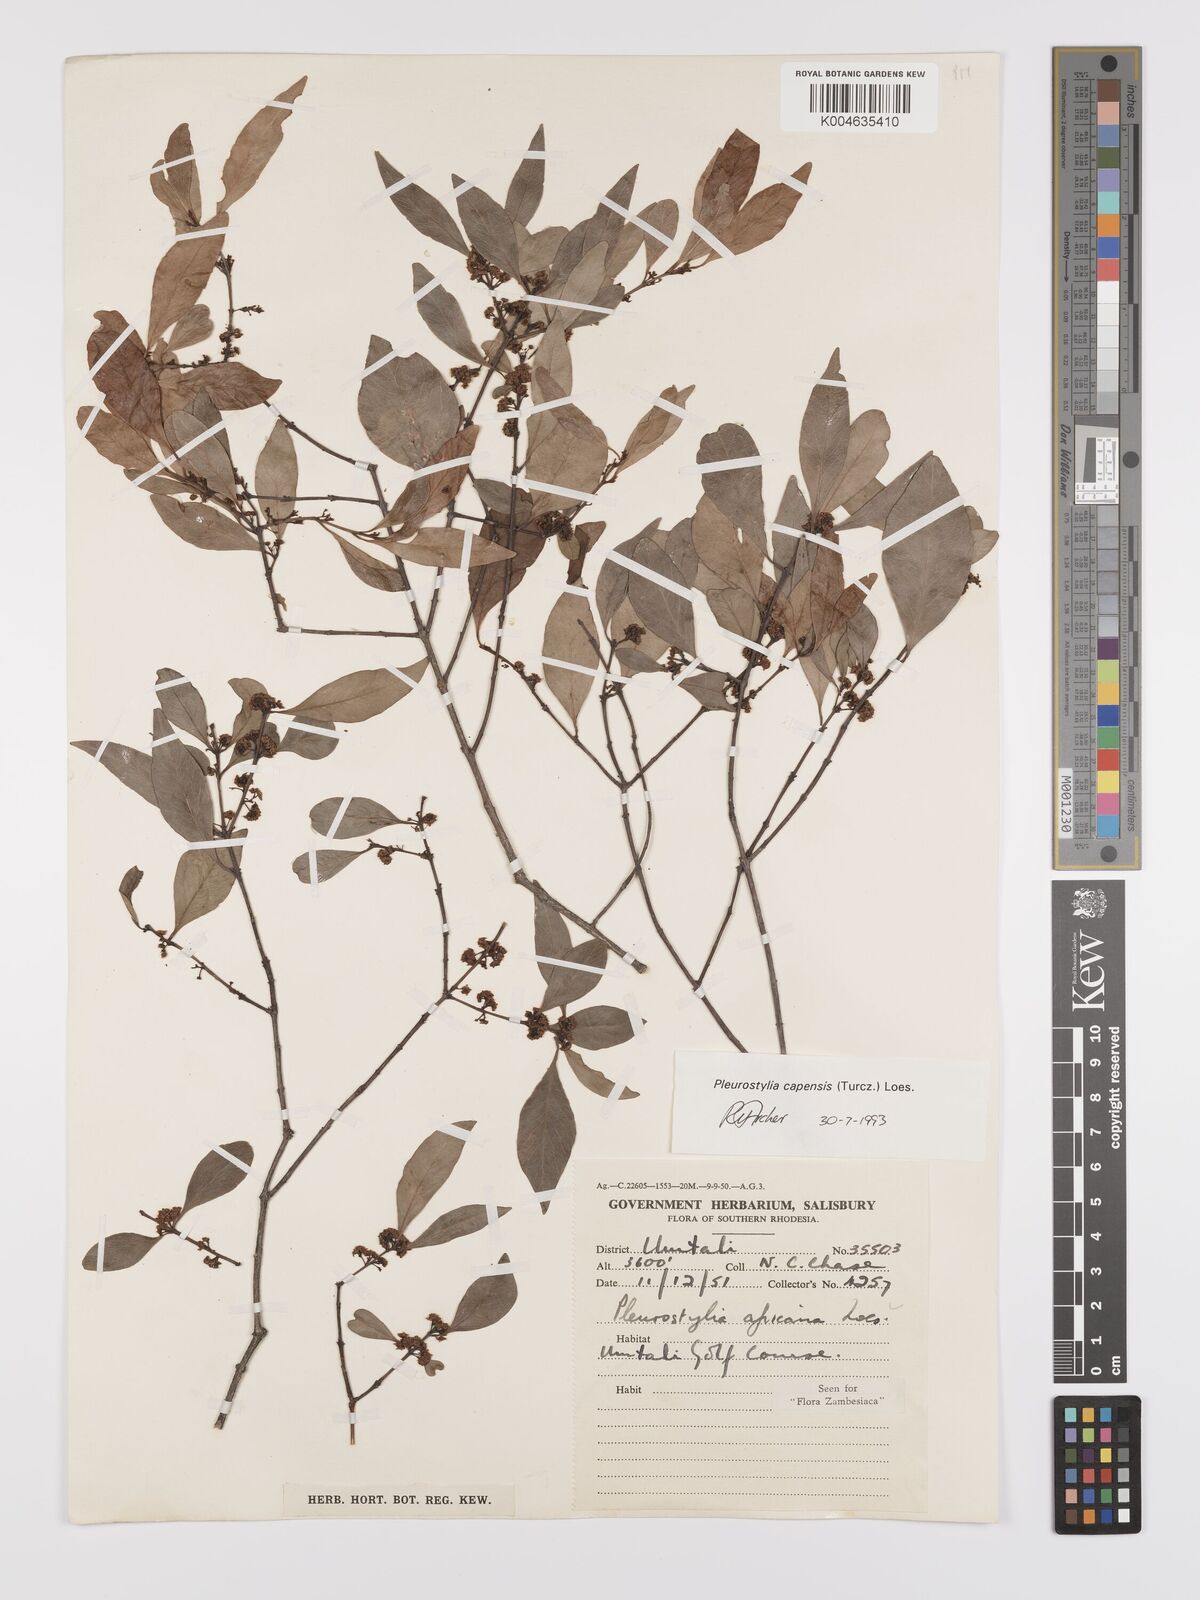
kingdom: Plantae
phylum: Tracheophyta
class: Magnoliopsida
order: Celastrales
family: Celastraceae
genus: Pleurostylia
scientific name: Pleurostylia africana
